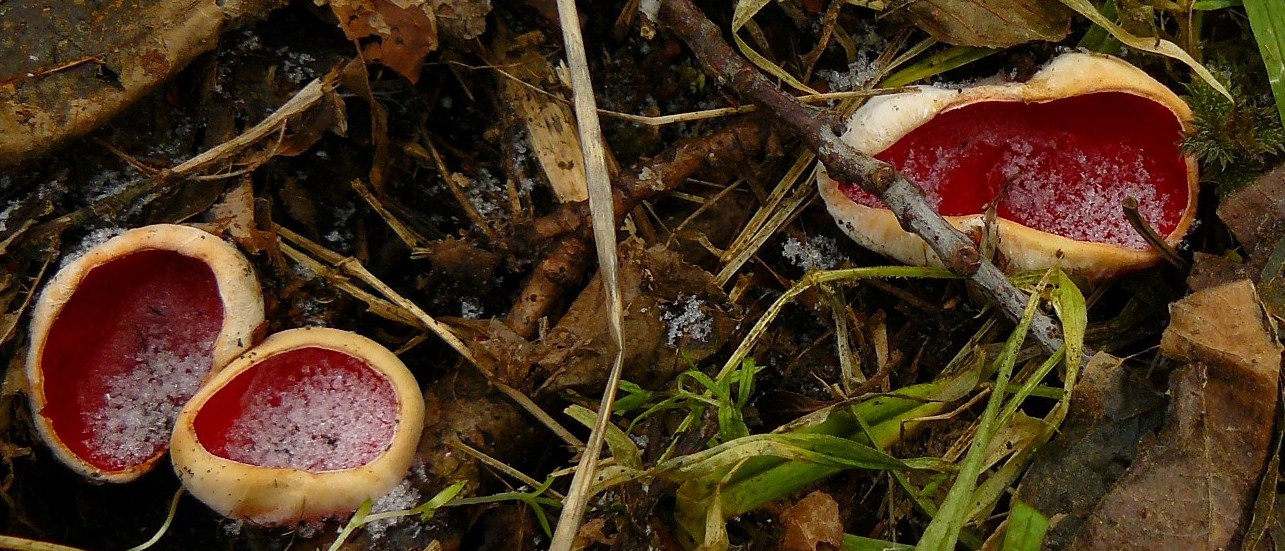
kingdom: Fungi
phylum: Ascomycota
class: Pezizomycetes
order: Pezizales
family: Sarcoscyphaceae
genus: Sarcoscypha
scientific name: Sarcoscypha austriaca
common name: krølhåret pragtbæger
